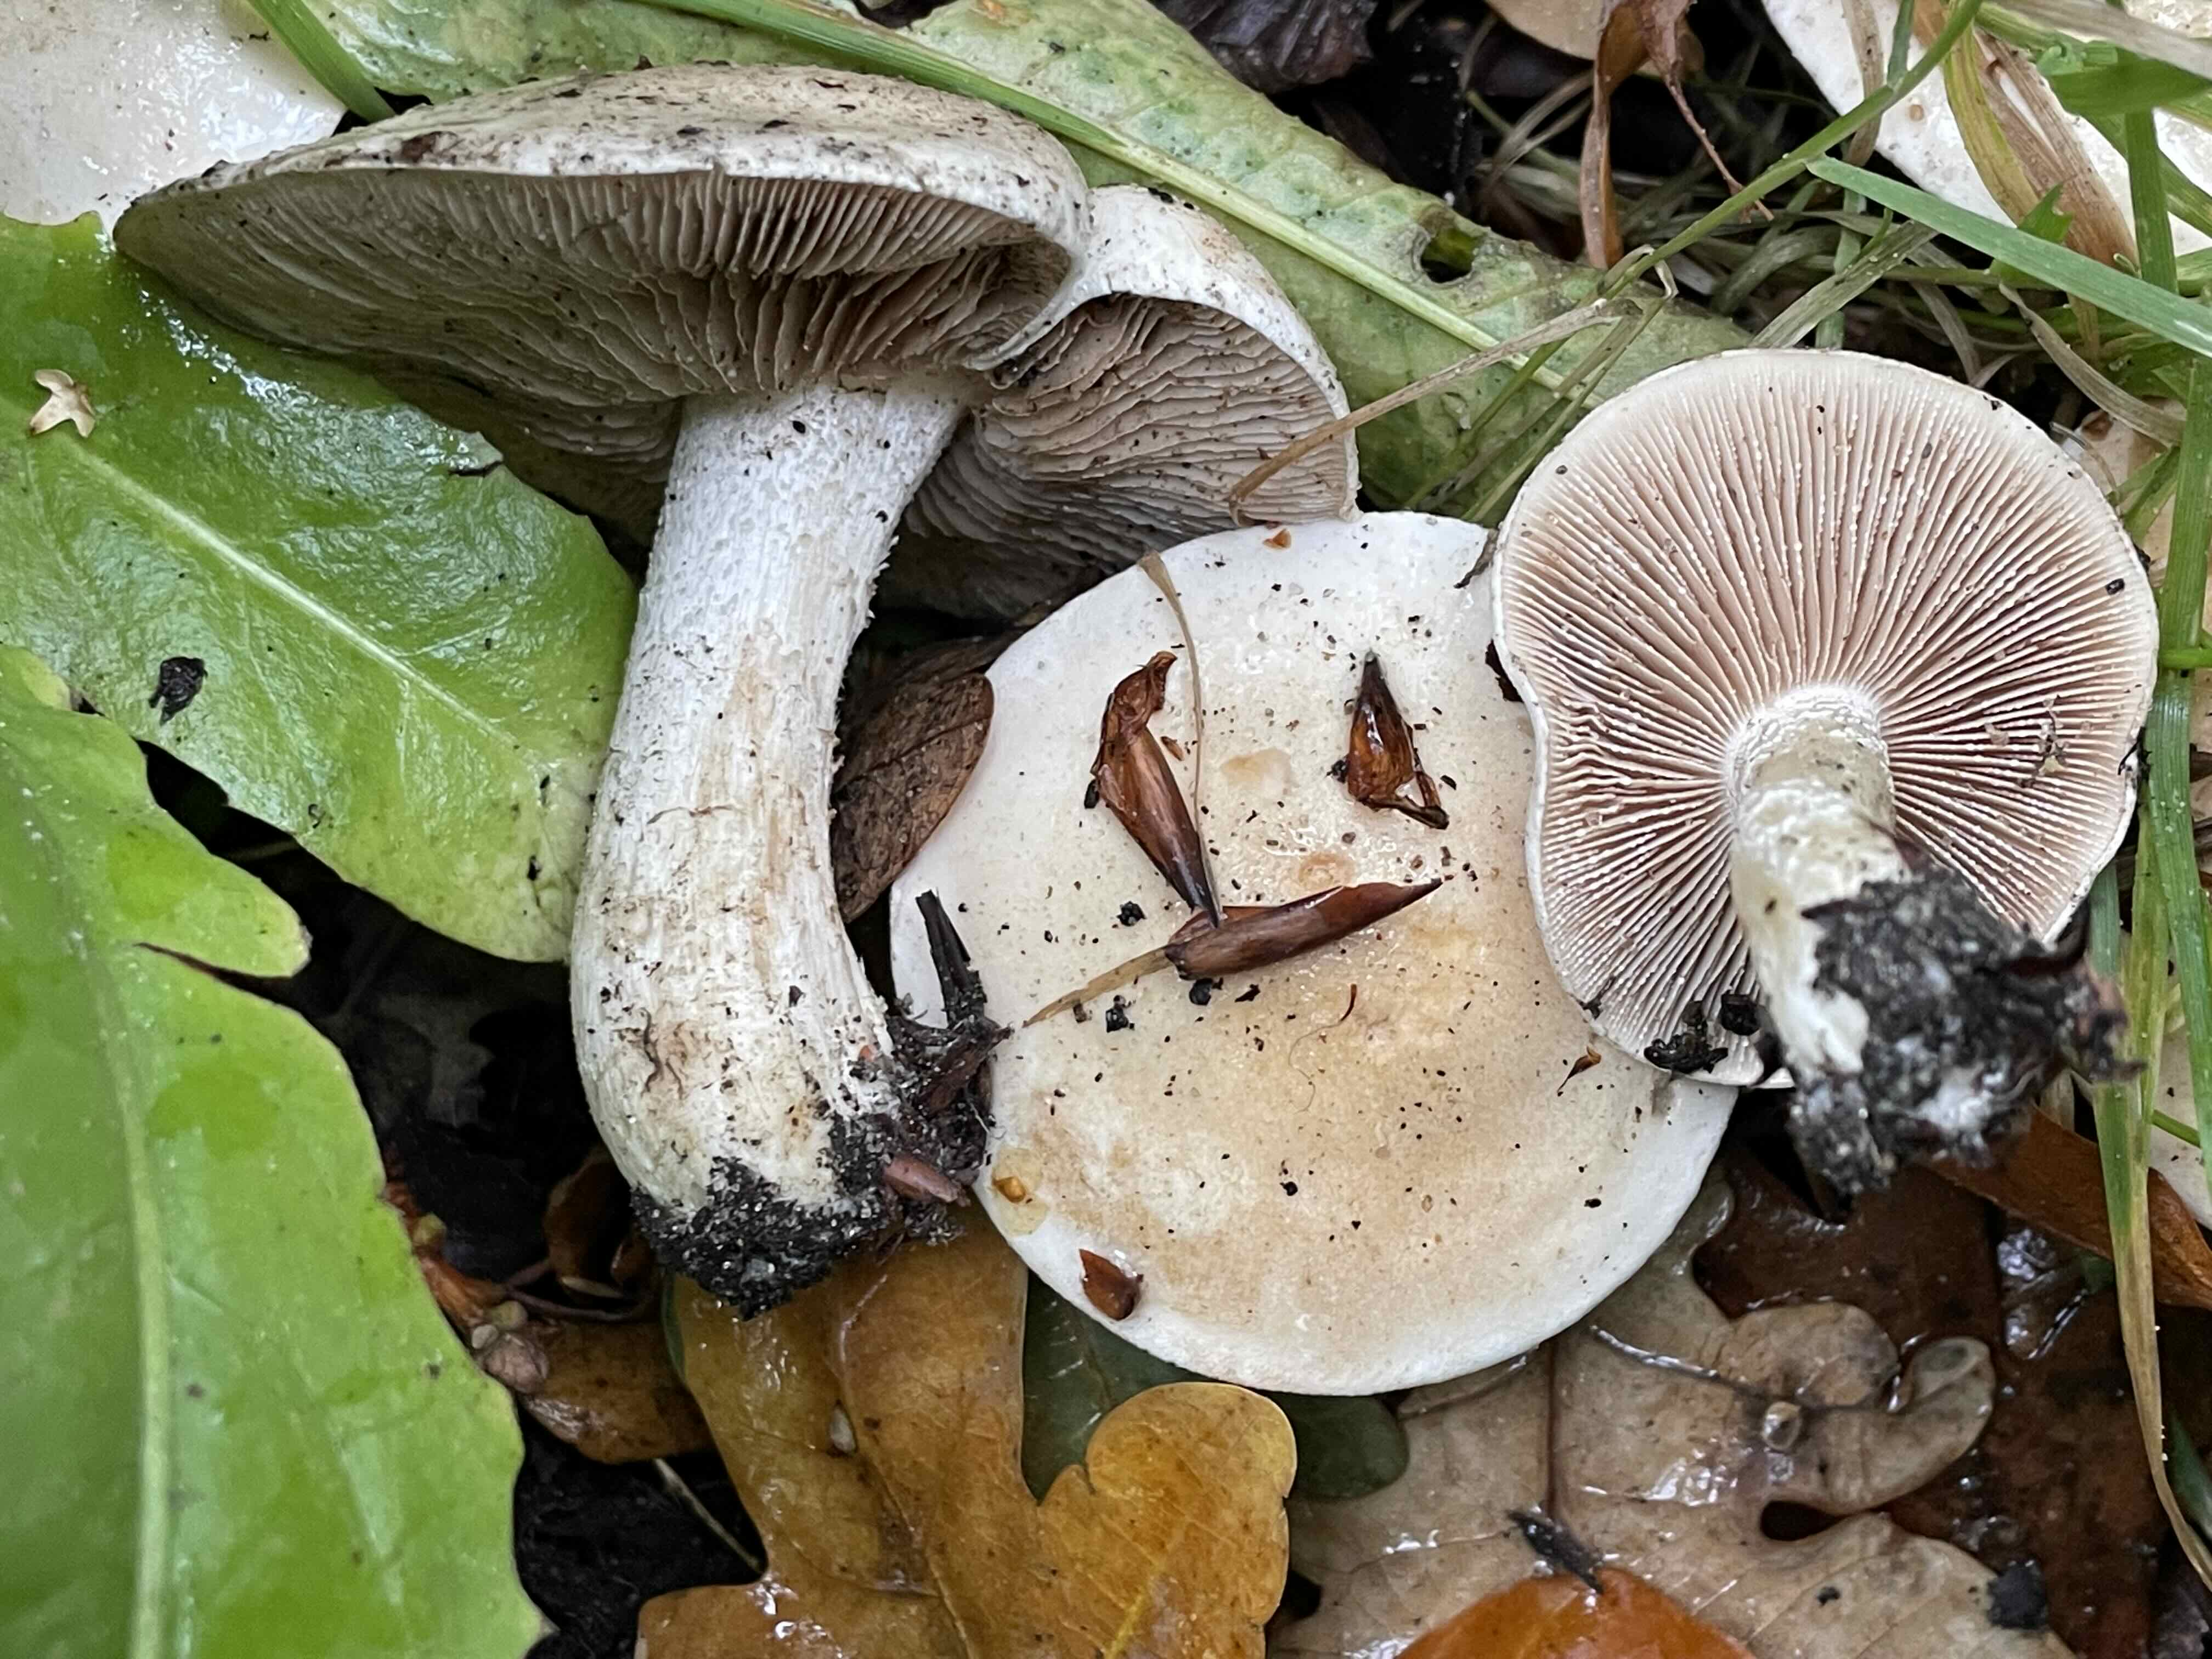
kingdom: Fungi
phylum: Basidiomycota
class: Agaricomycetes
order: Agaricales
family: Hymenogastraceae
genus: Hebeloma
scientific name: Hebeloma crustuliniforme
